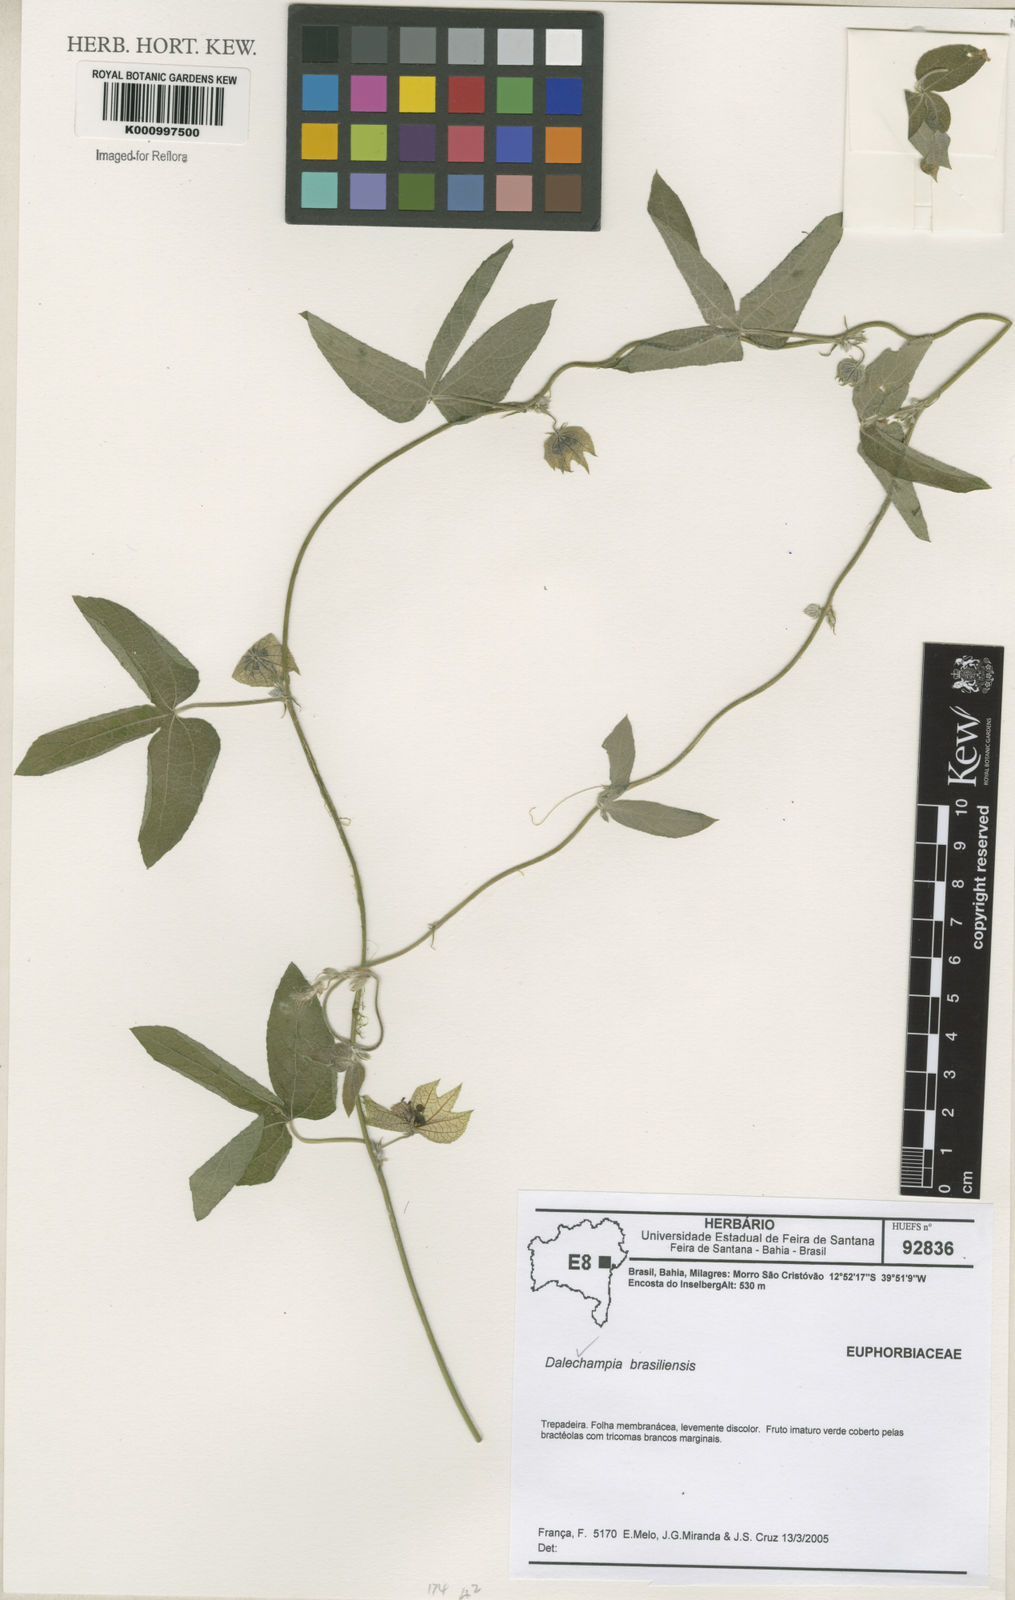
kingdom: Plantae
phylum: Tracheophyta
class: Magnoliopsida
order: Malpighiales
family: Euphorbiaceae
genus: Dalechampia
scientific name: Dalechampia brasiliensis
